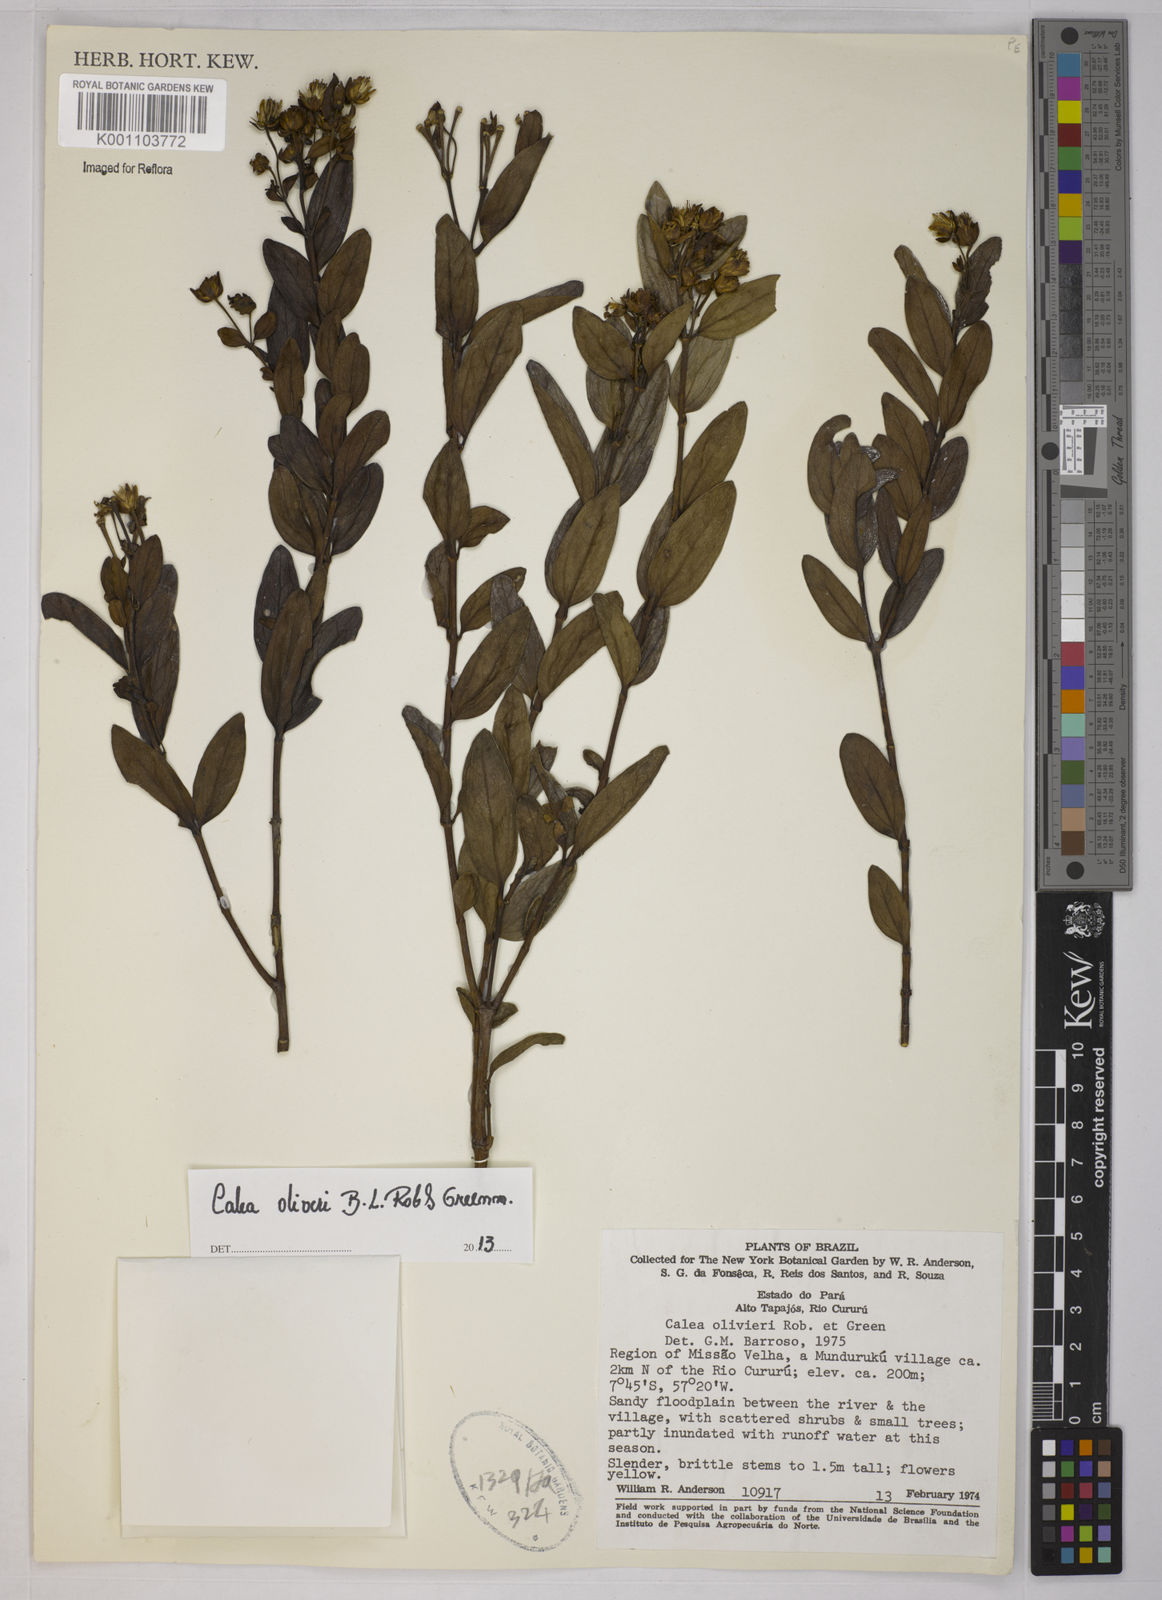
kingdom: Plantae
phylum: Tracheophyta
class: Magnoliopsida
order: Asterales
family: Asteraceae
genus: Calea
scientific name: Calea oliveri
